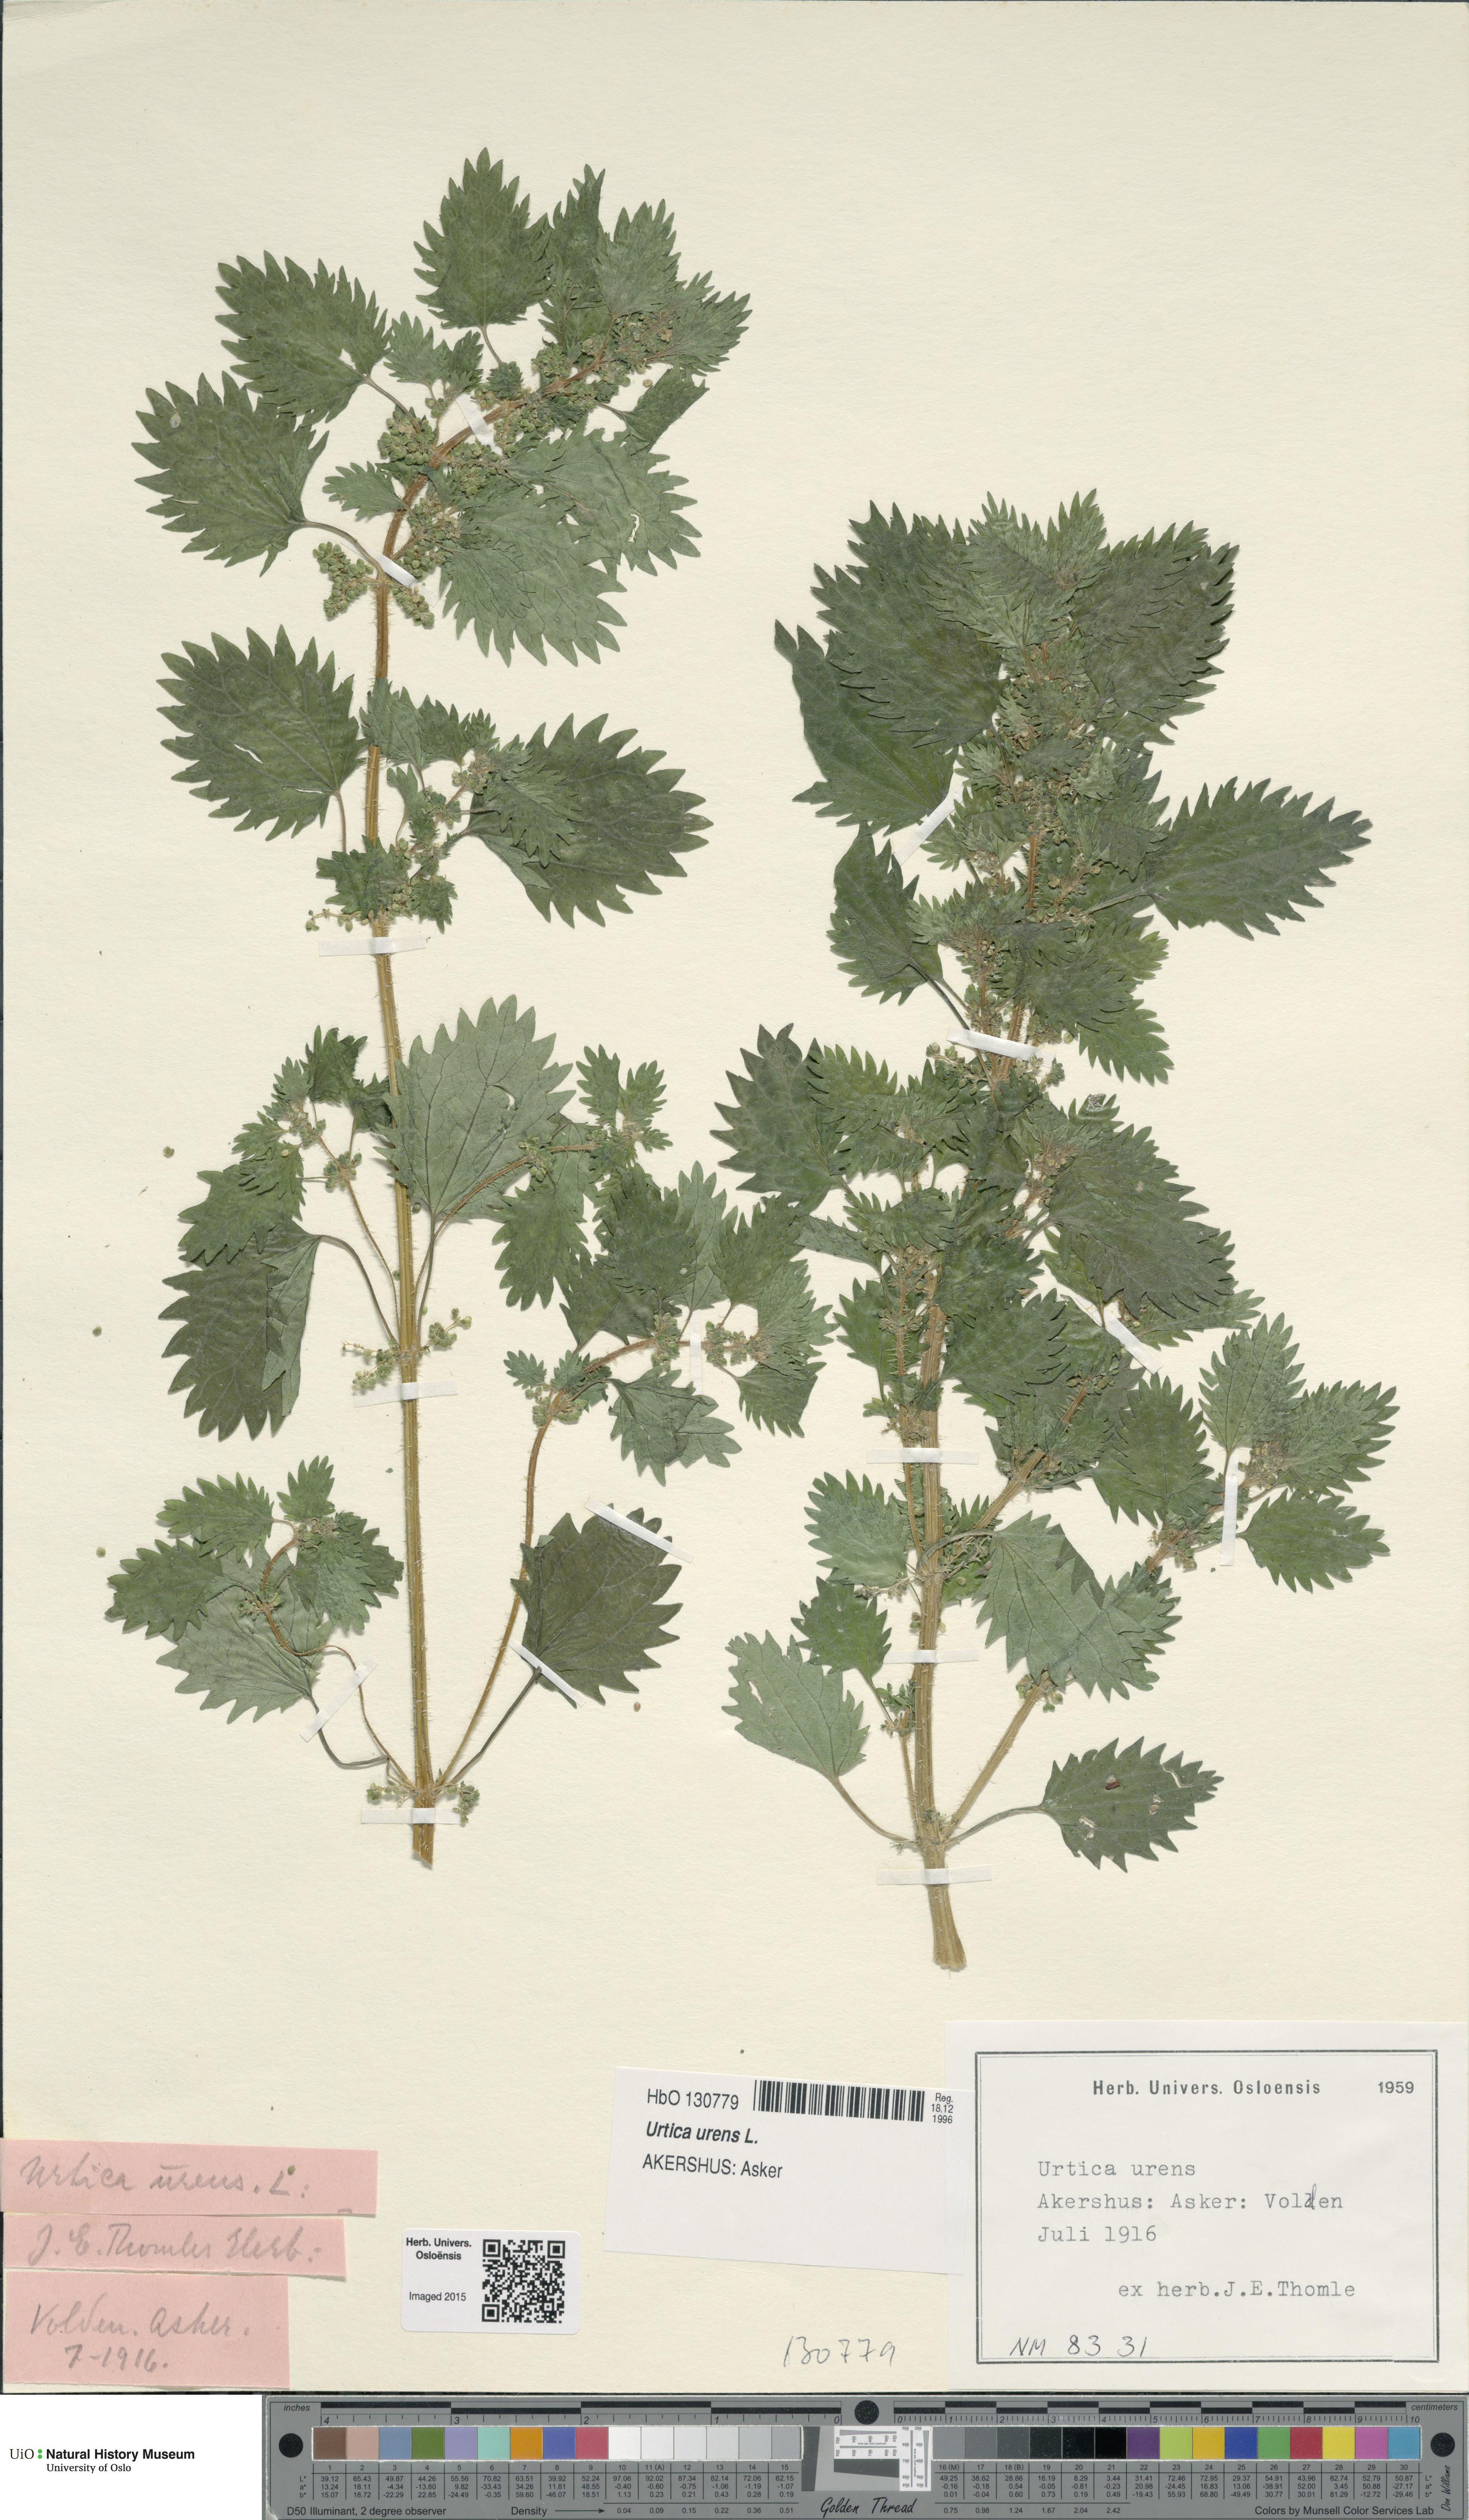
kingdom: Plantae
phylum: Tracheophyta
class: Magnoliopsida
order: Rosales
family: Urticaceae
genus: Urtica
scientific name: Urtica urens
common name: Dwarf nettle
